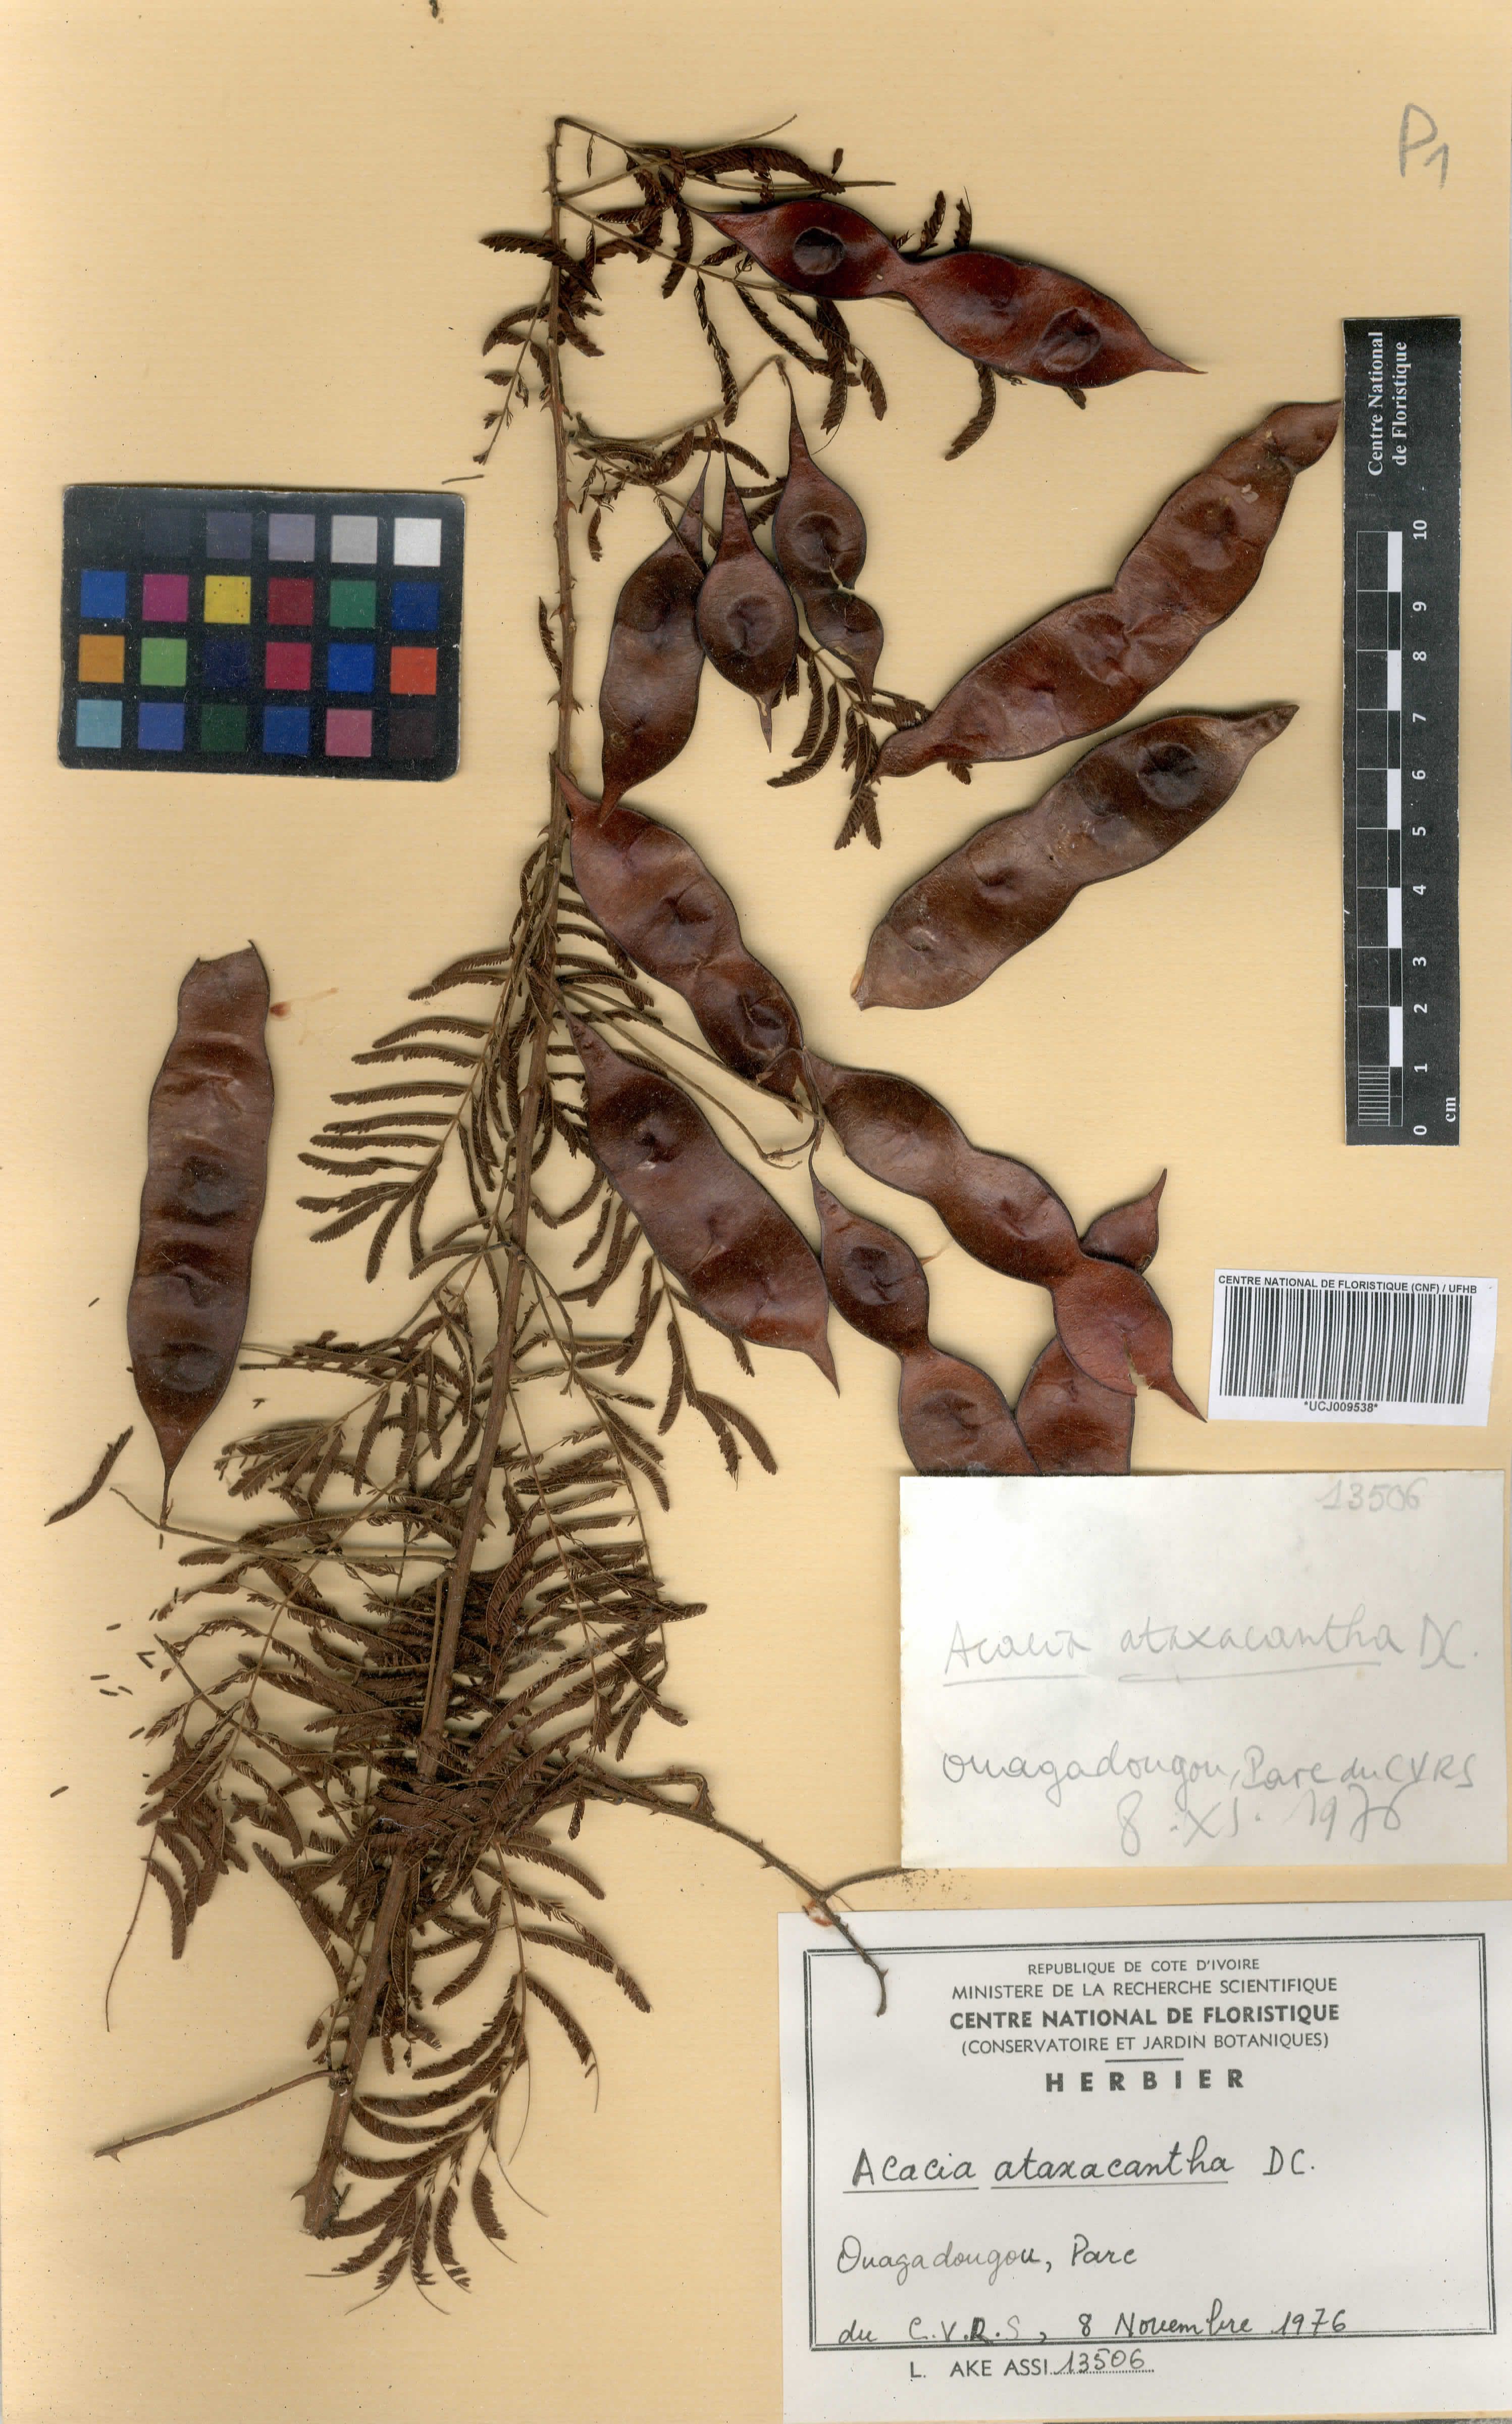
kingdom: Plantae
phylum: Tracheophyta
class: Magnoliopsida
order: Fabales
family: Fabaceae
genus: Senegalia
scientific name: Senegalia ataxacantha
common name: Flame acacia
